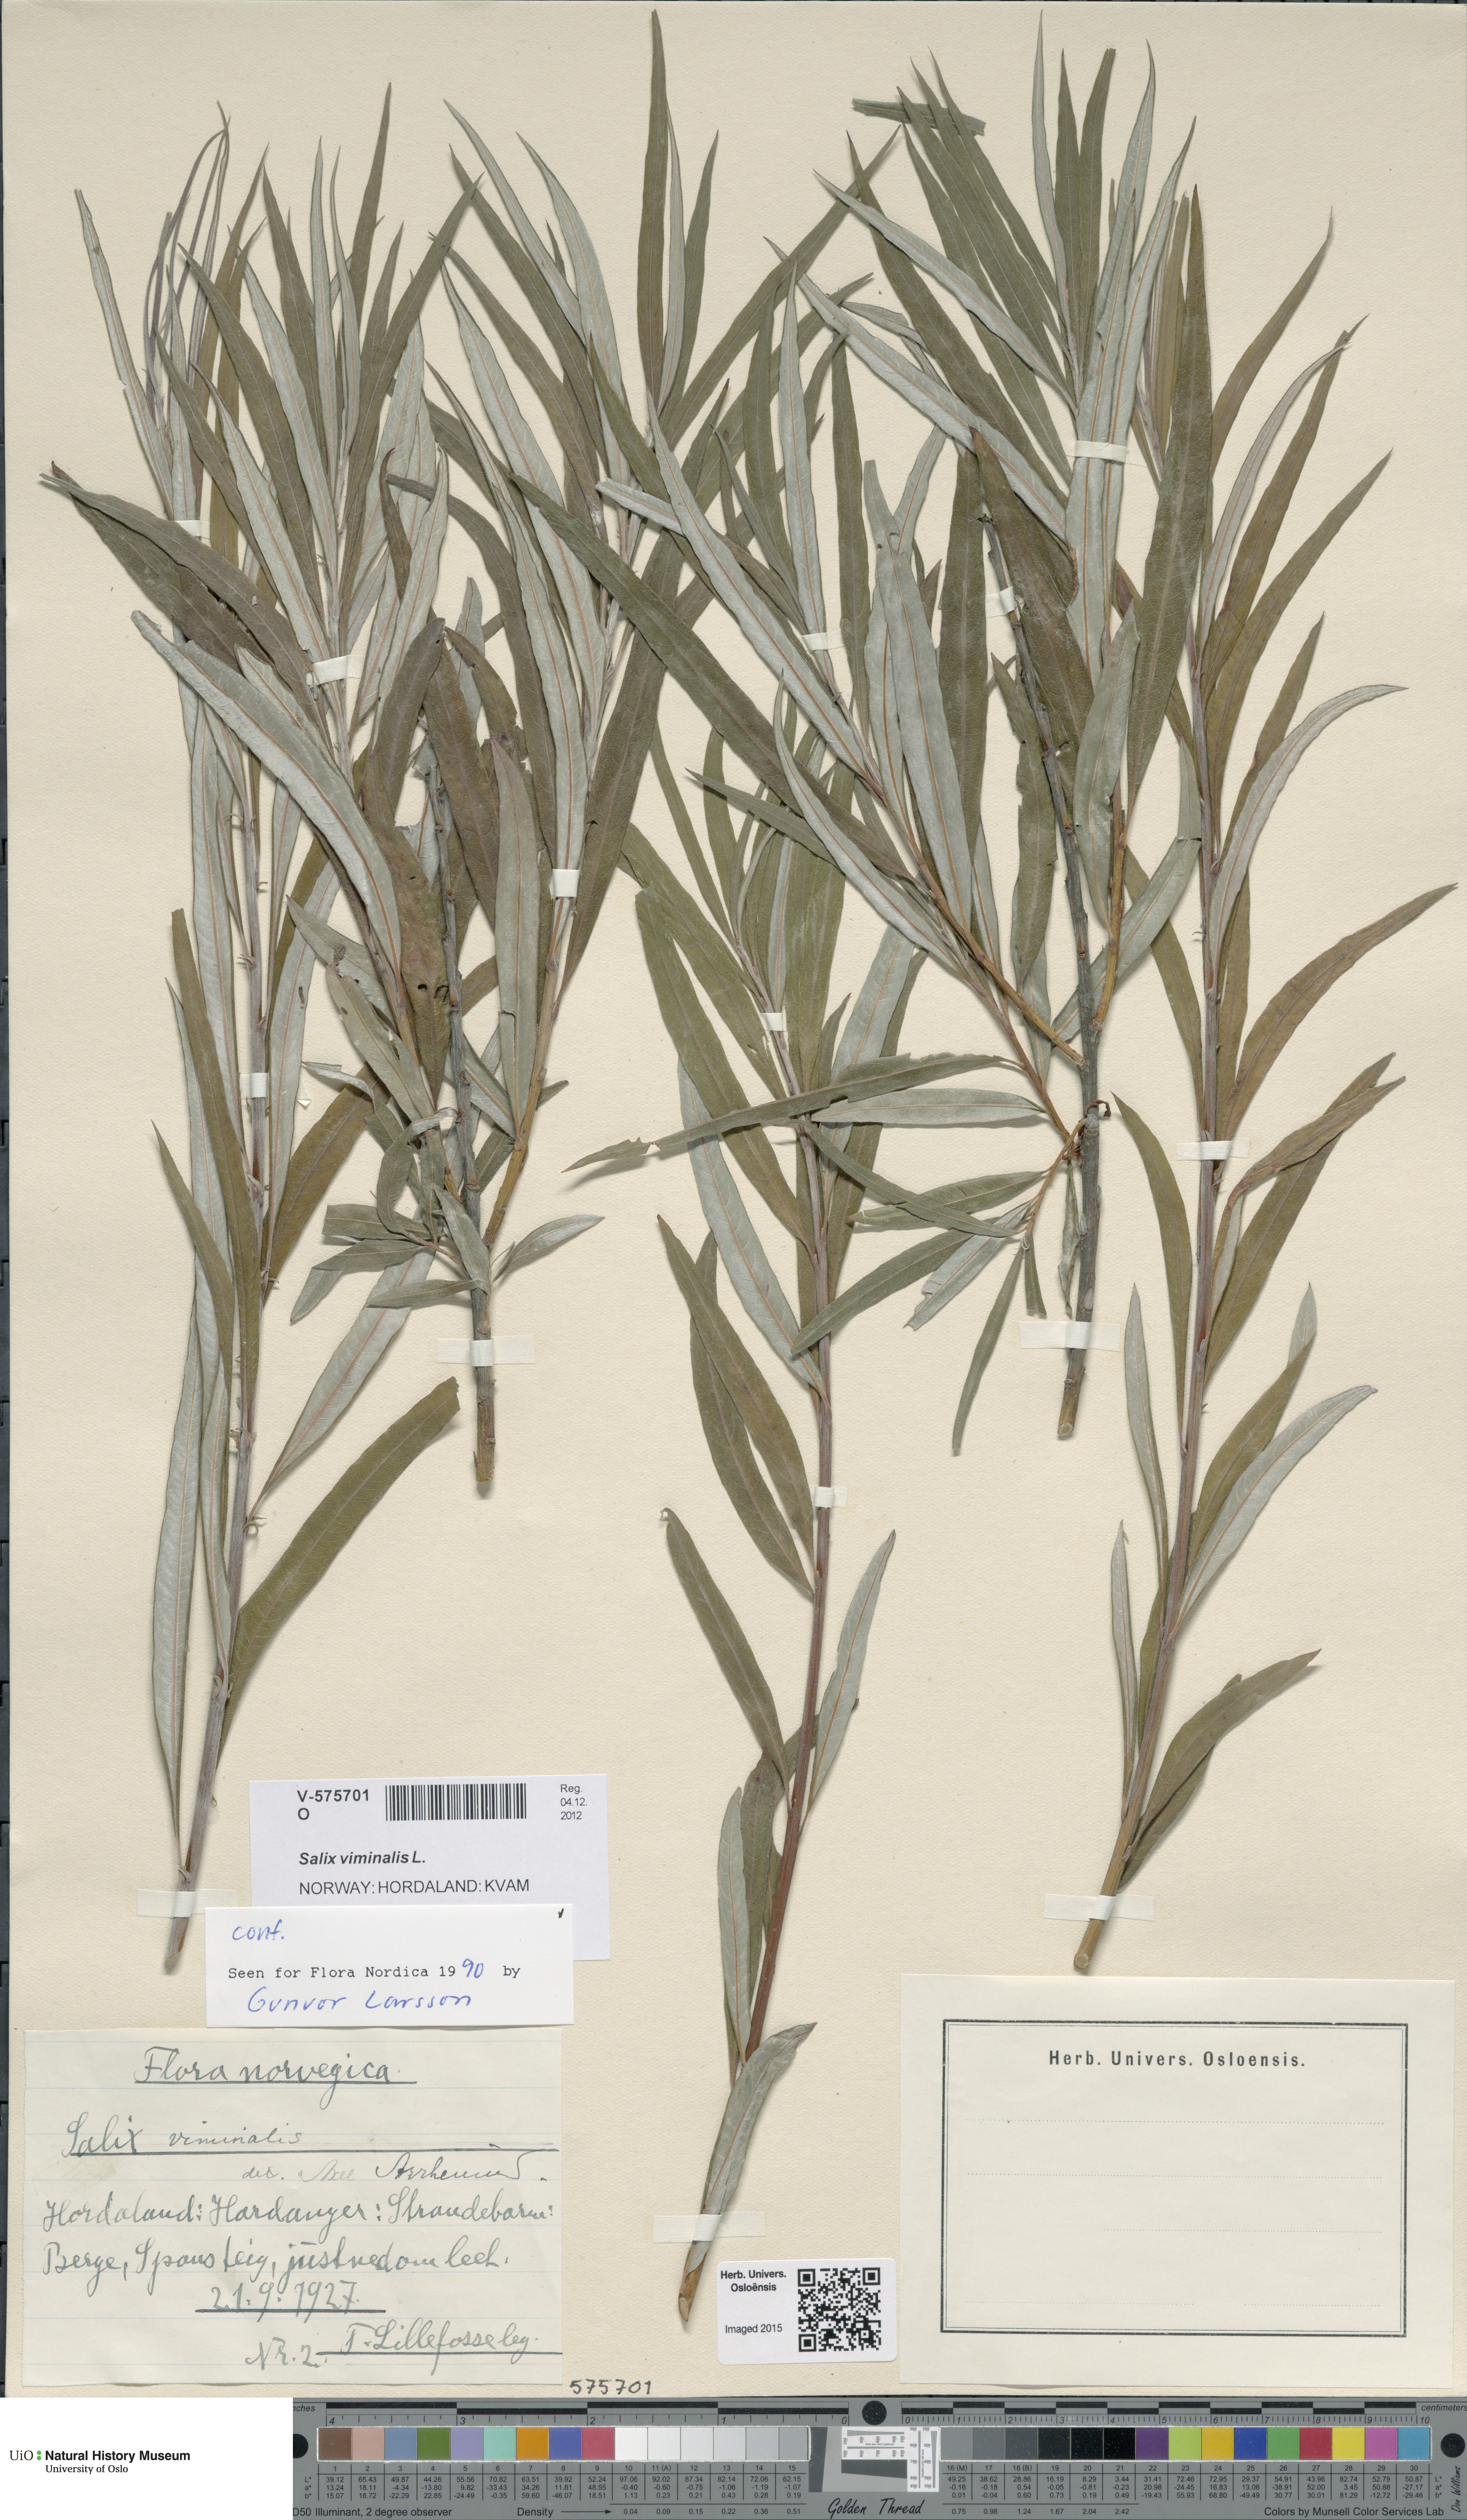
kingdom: Plantae
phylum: Tracheophyta
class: Magnoliopsida
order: Malpighiales
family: Salicaceae
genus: Salix
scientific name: Salix viminalis
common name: Osier
